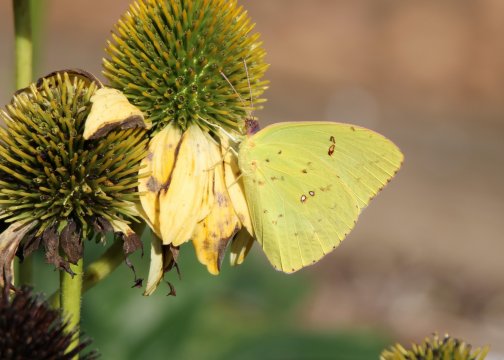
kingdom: Animalia
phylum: Arthropoda
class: Insecta
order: Lepidoptera
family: Pieridae
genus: Phoebis
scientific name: Phoebis sennae
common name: Cloudless Sulphur
